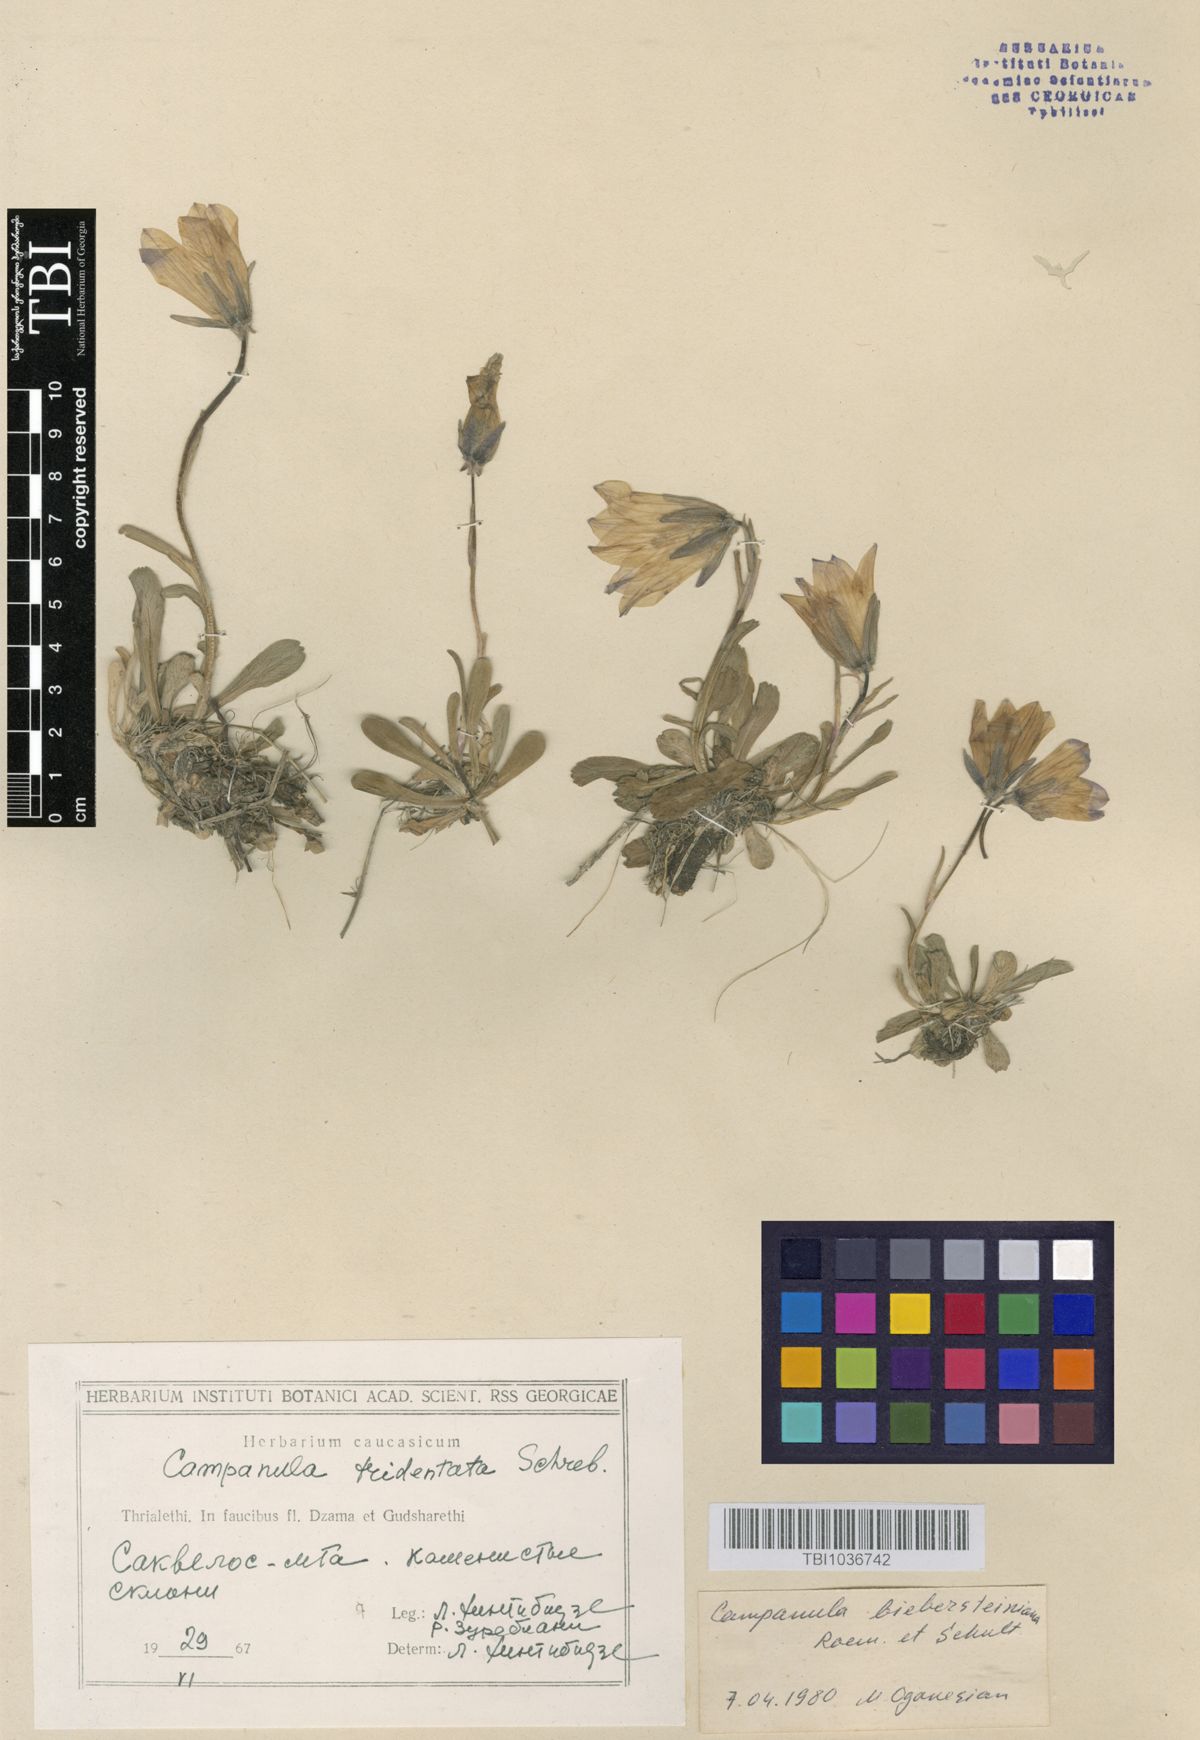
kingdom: Plantae
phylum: Tracheophyta
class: Magnoliopsida
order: Asterales
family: Campanulaceae
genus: Campanula
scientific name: Campanula tridentata
